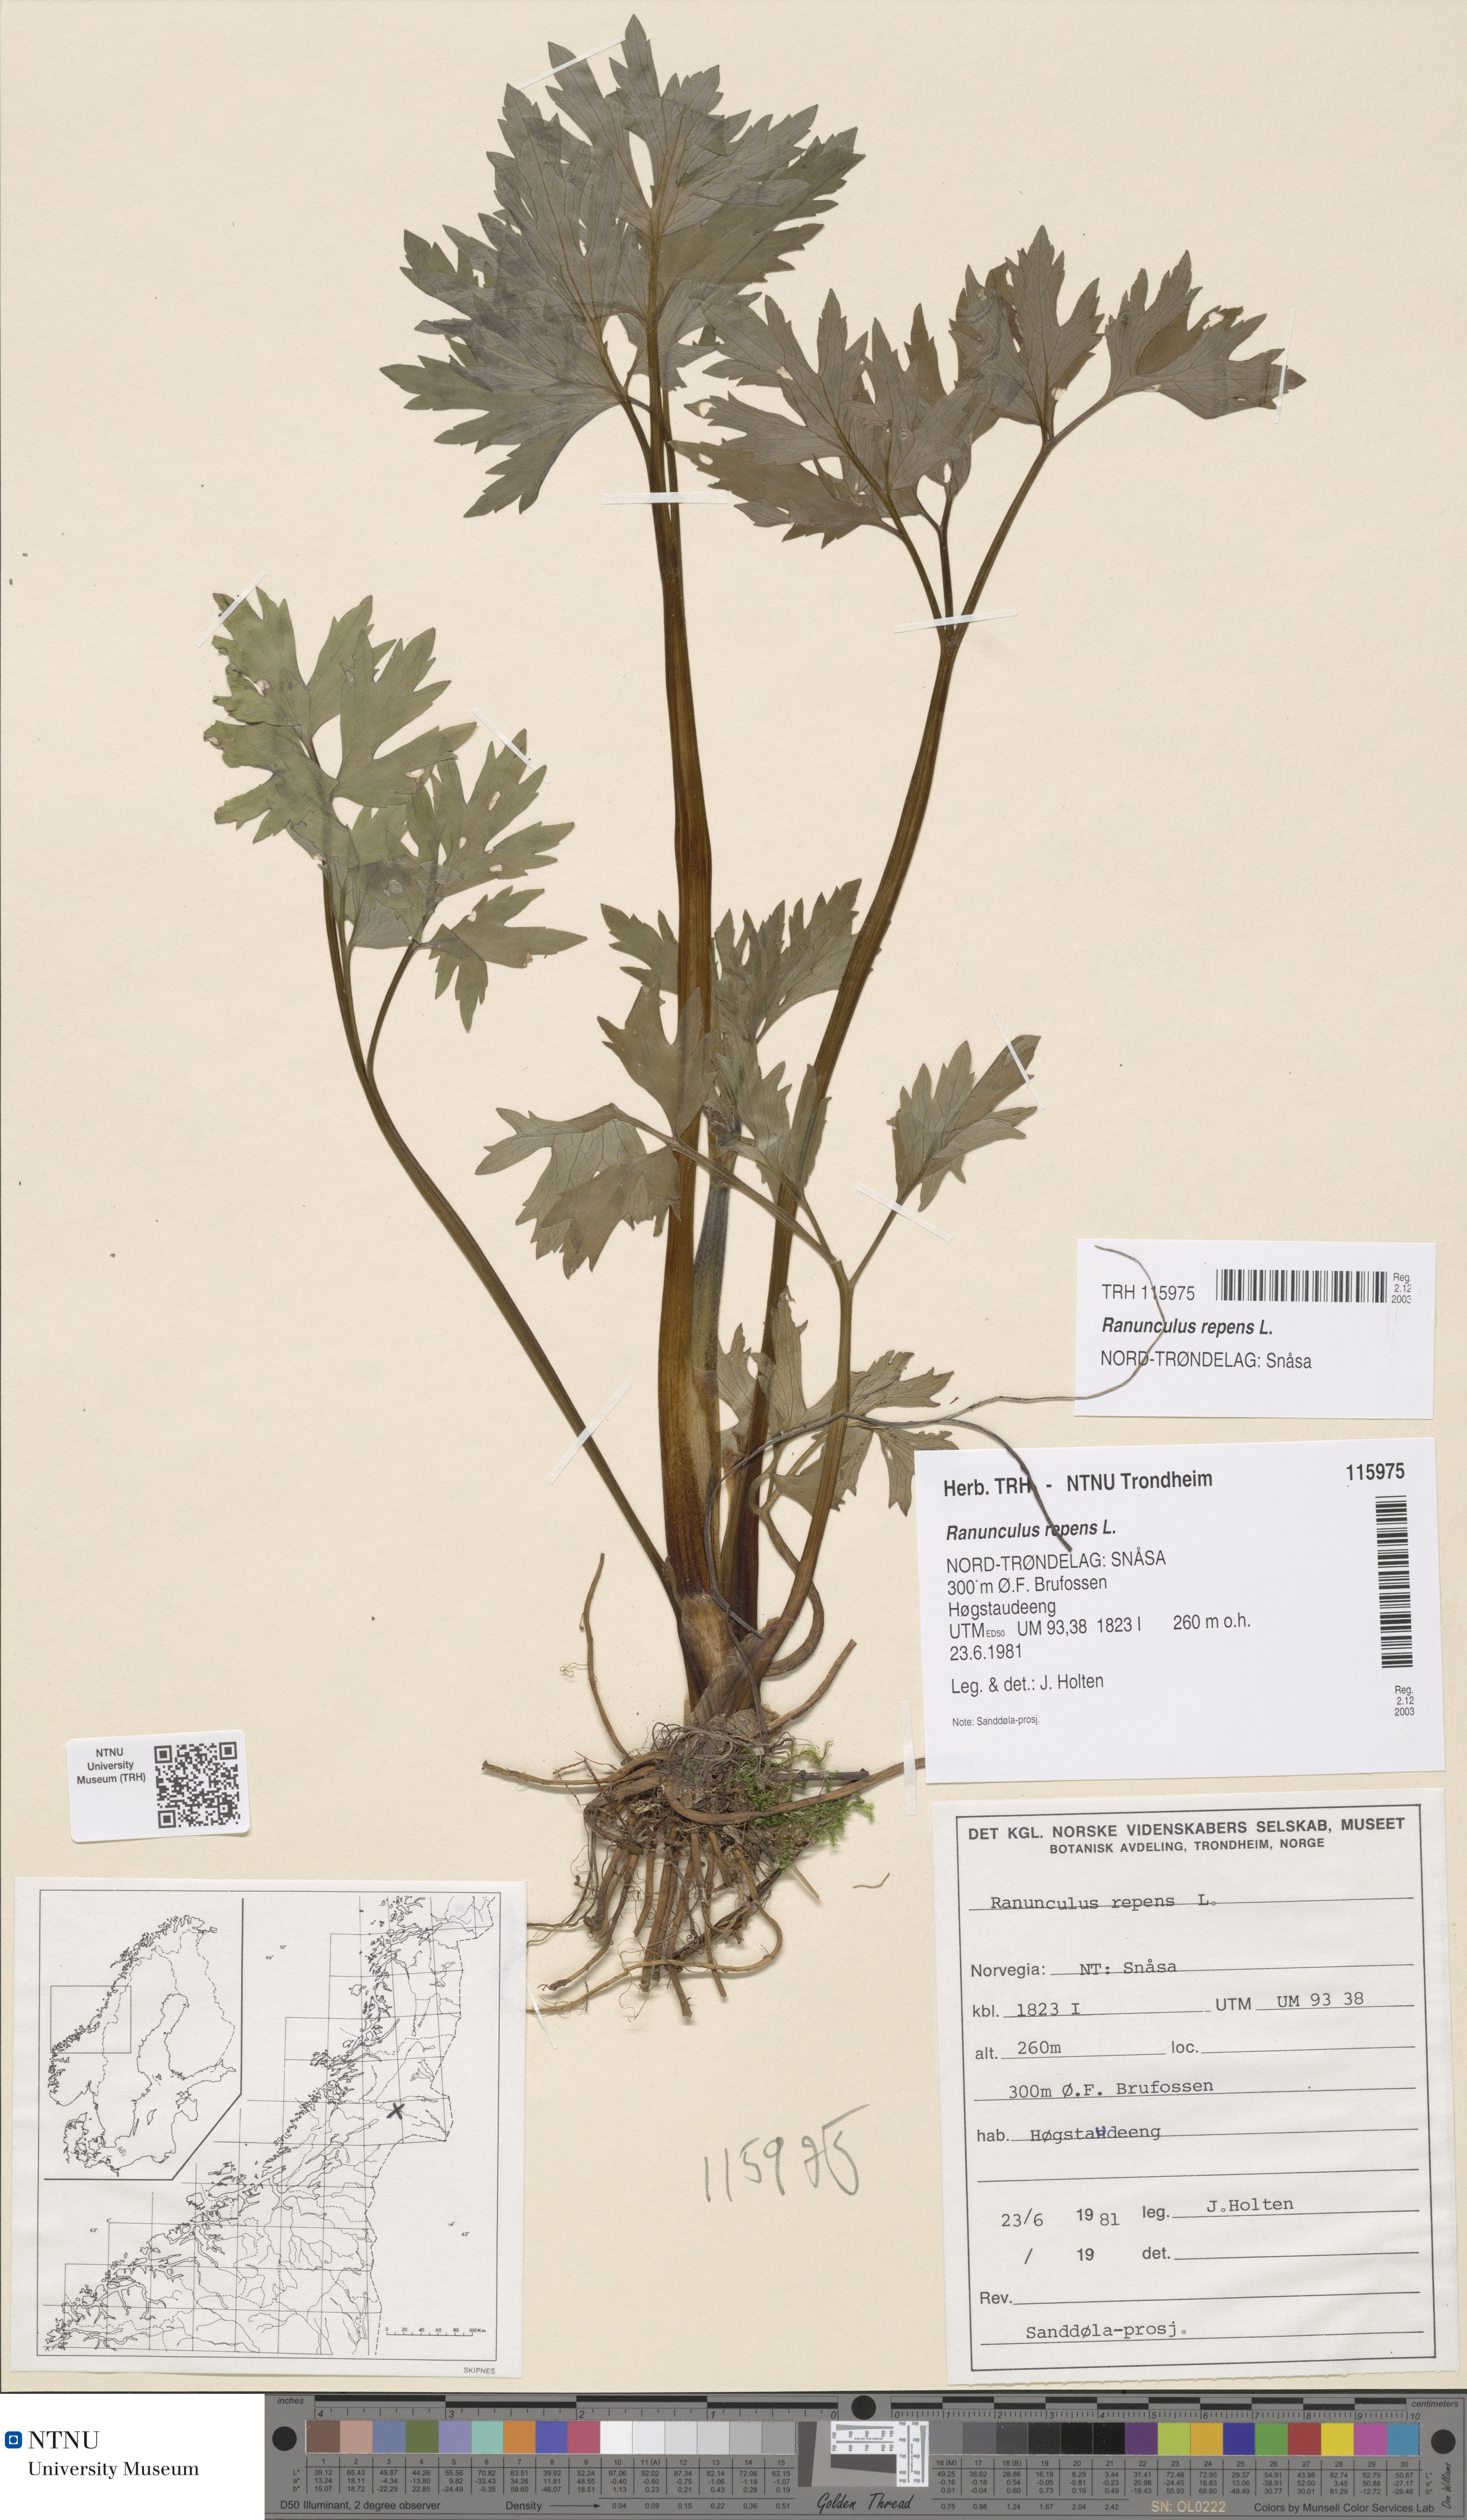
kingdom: Plantae
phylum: Tracheophyta
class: Magnoliopsida
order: Ranunculales
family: Ranunculaceae
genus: Ranunculus
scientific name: Ranunculus repens
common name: Creeping buttercup
